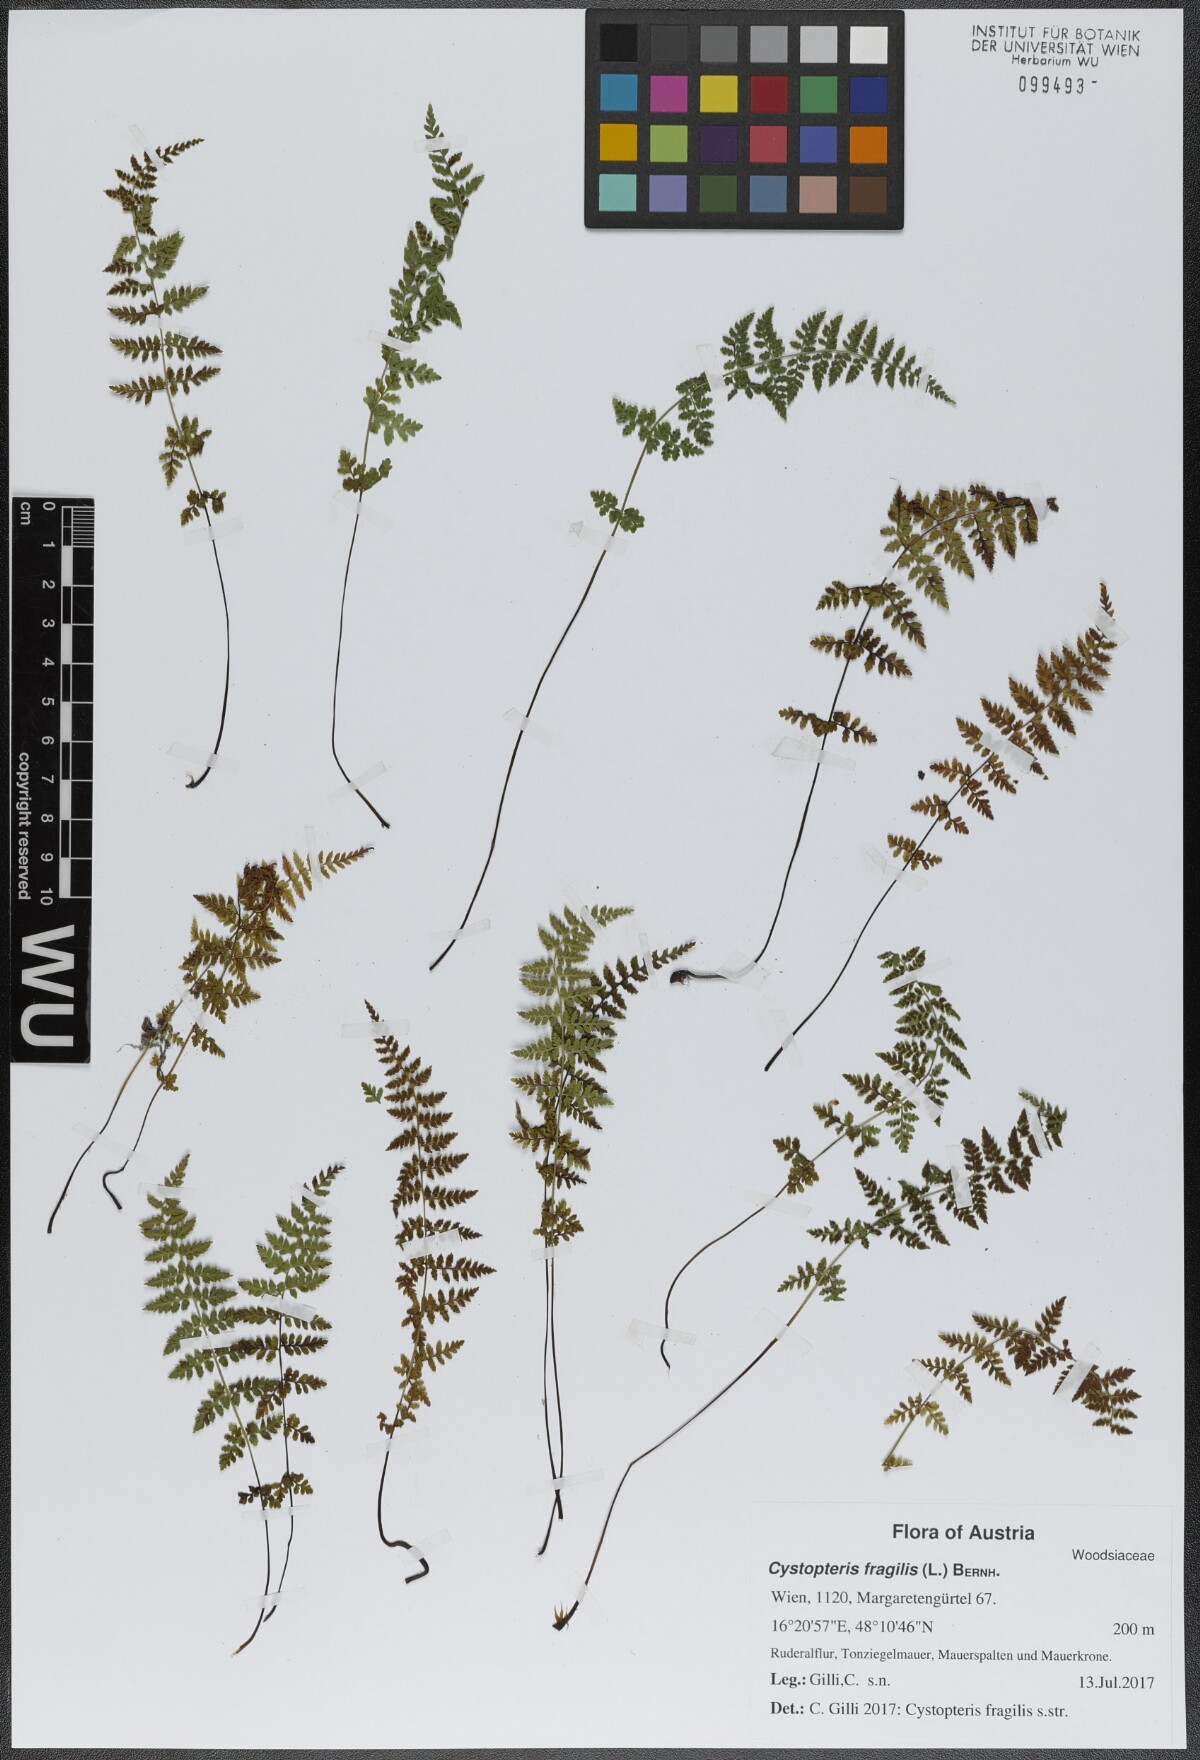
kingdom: Plantae
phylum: Tracheophyta
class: Polypodiopsida
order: Polypodiales
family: Cystopteridaceae
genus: Cystopteris
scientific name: Cystopteris fragilis
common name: Brittle bladder fern
